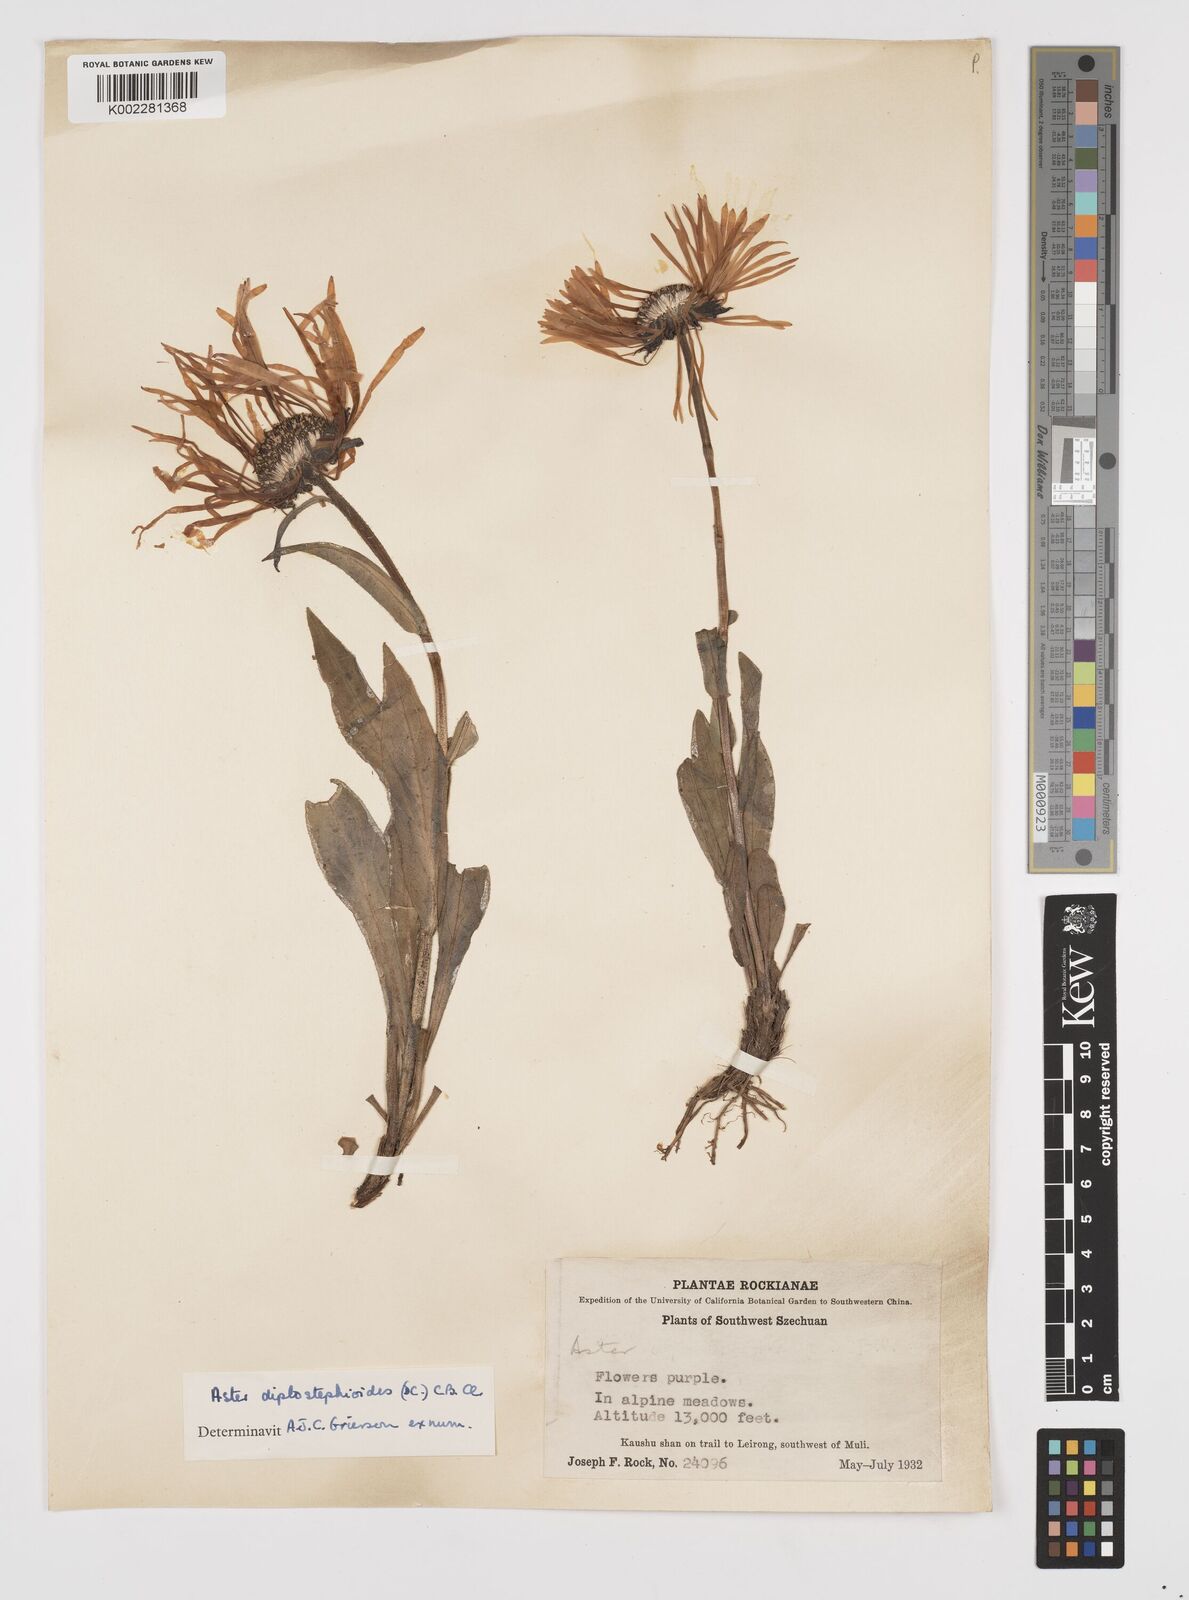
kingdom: Plantae
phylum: Tracheophyta
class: Magnoliopsida
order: Asterales
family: Asteraceae
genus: Tibetiodes
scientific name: Tibetiodes diplostephioides
